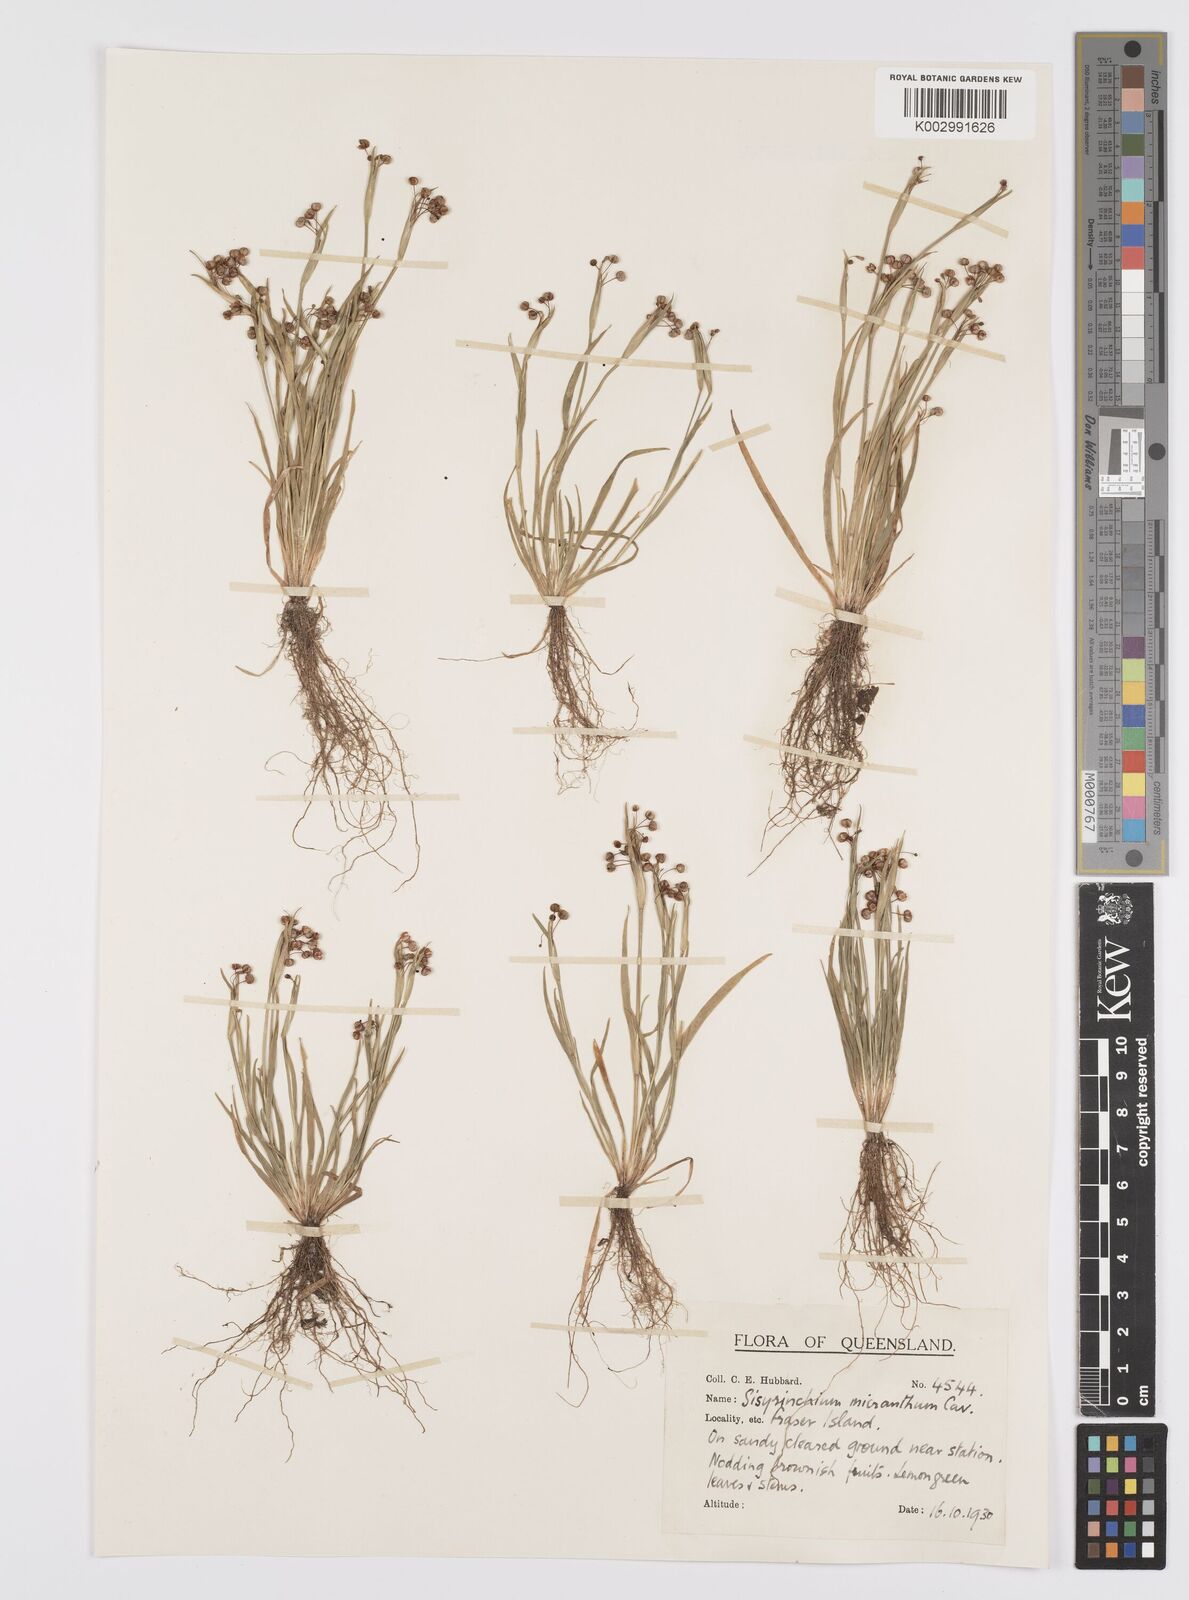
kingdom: Plantae
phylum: Tracheophyta
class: Liliopsida
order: Asparagales
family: Iridaceae
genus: Sisyrinchium
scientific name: Sisyrinchium micranthum
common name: Bermuda pigroot
